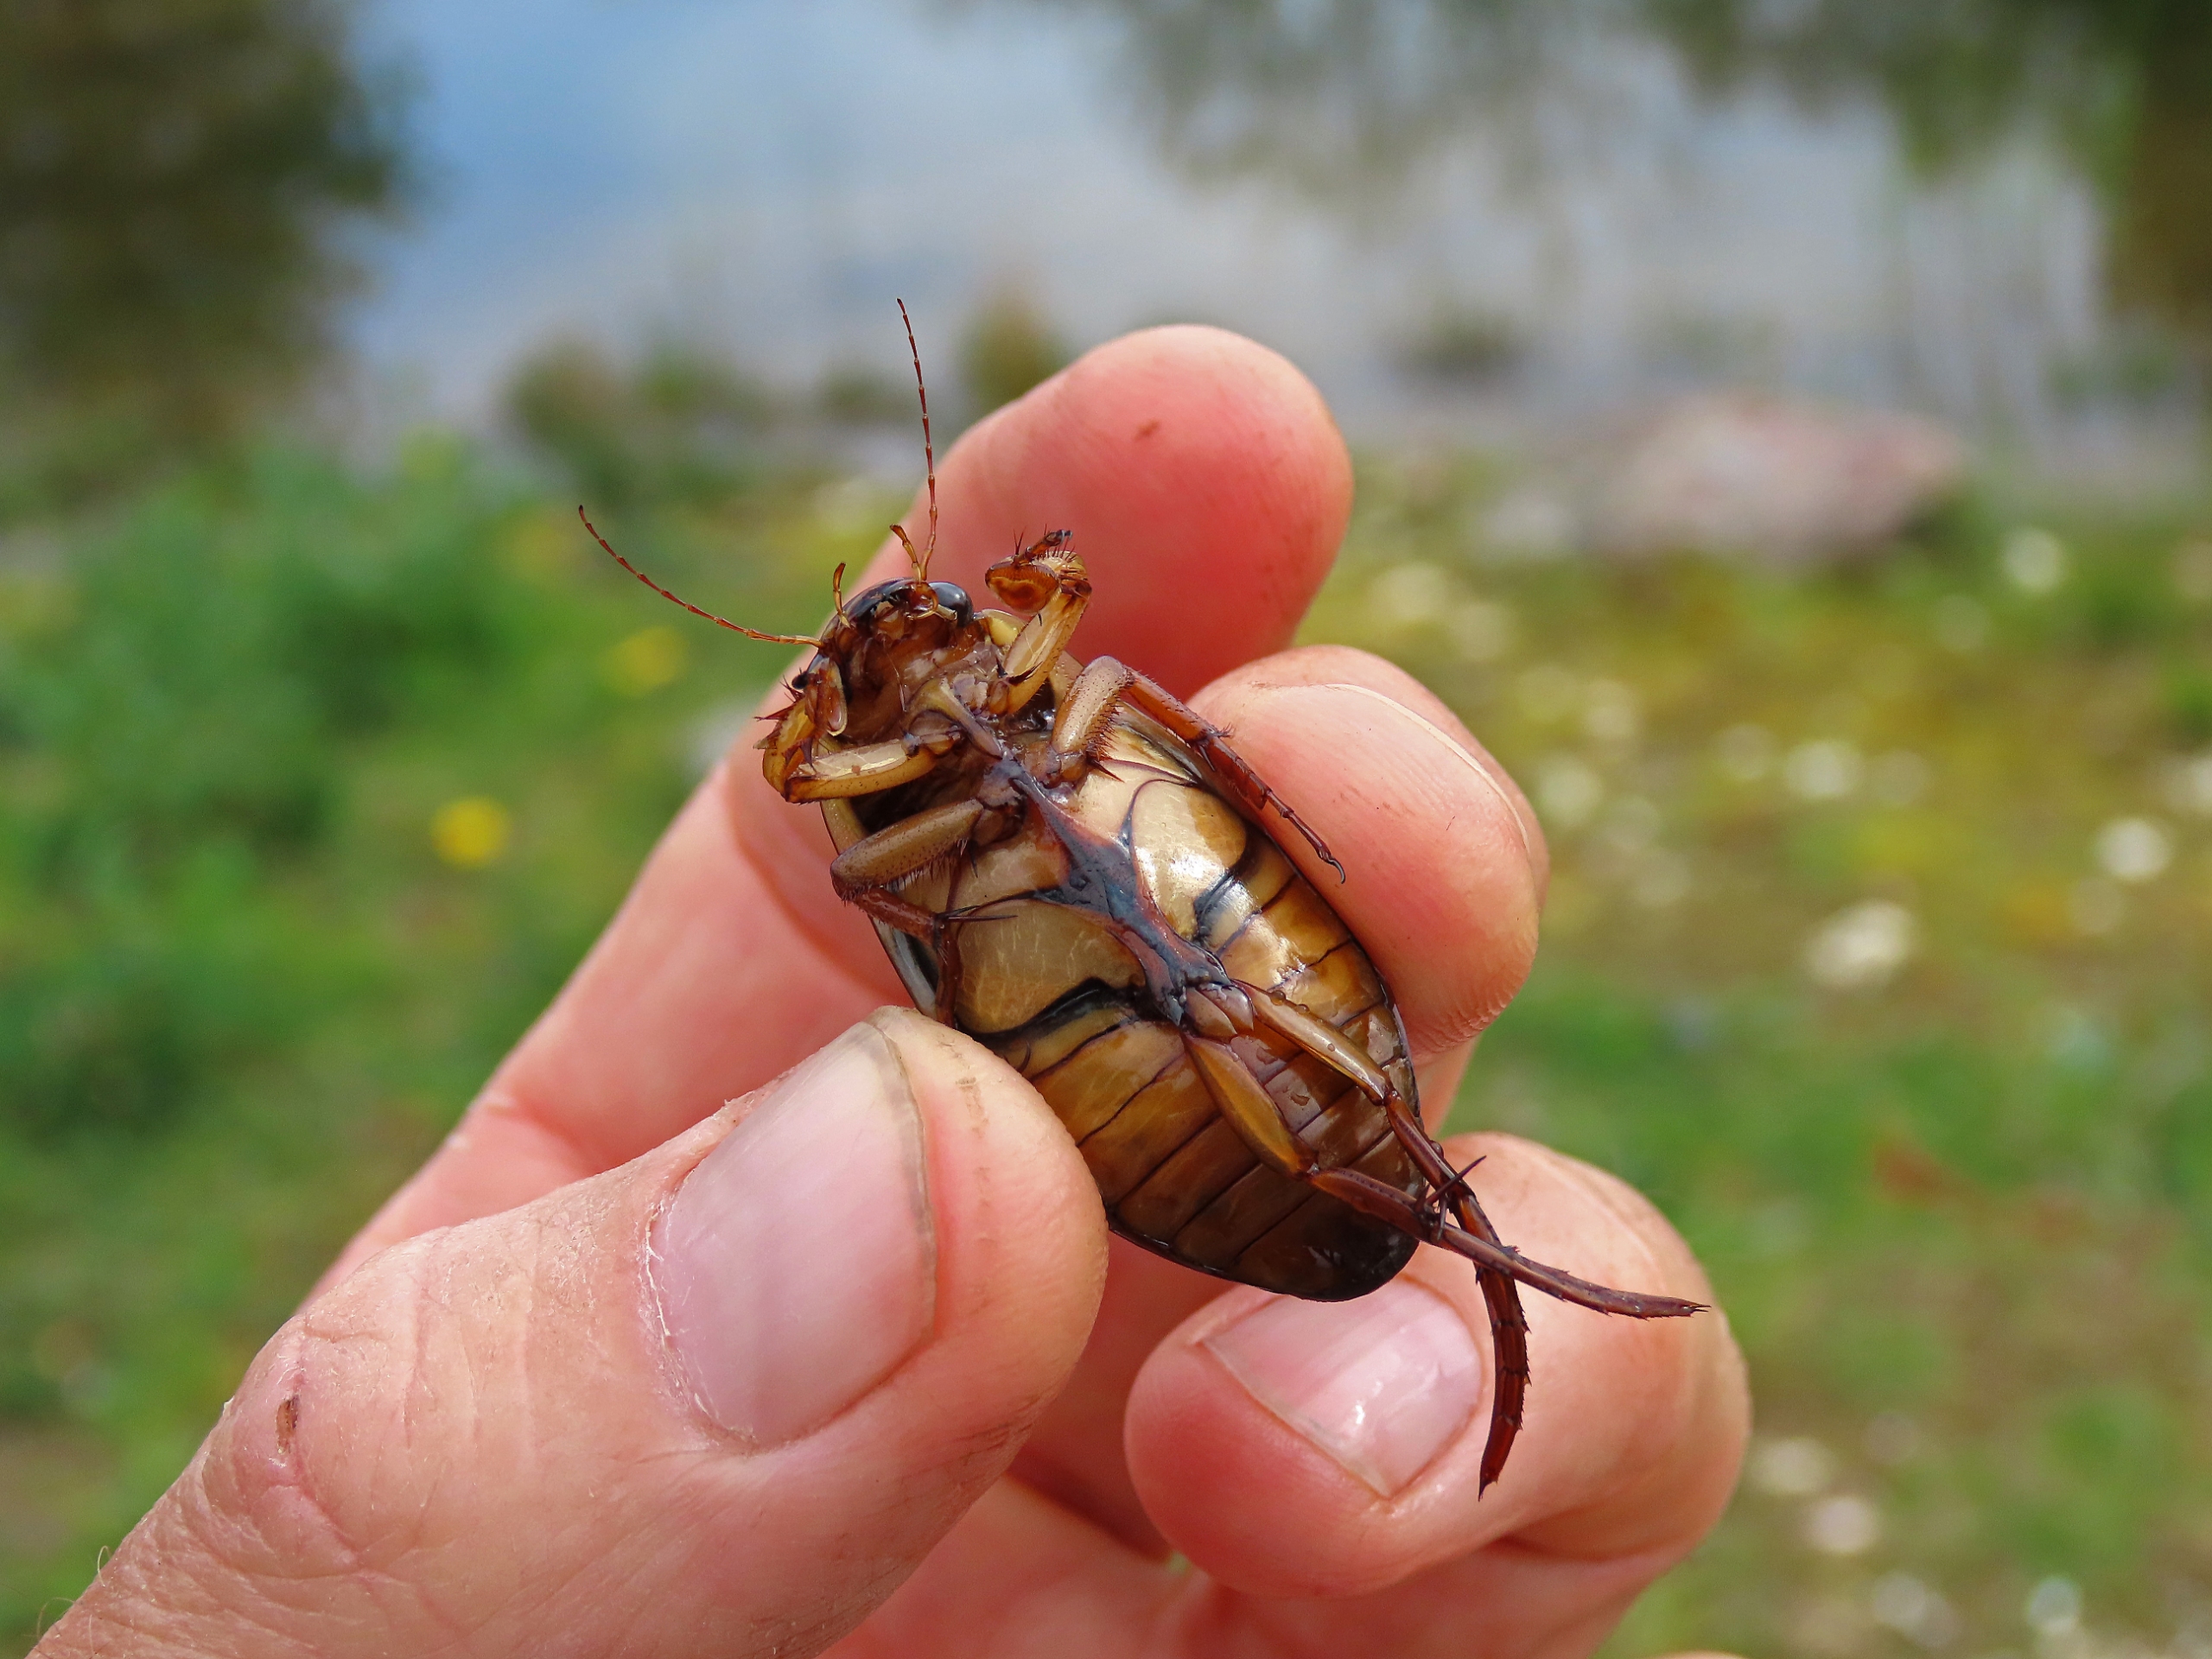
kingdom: Animalia
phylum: Arthropoda
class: Insecta
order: Coleoptera
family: Dytiscidae
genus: Dytiscus
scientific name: Dytiscus marginalis
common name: Stor vandkalv
